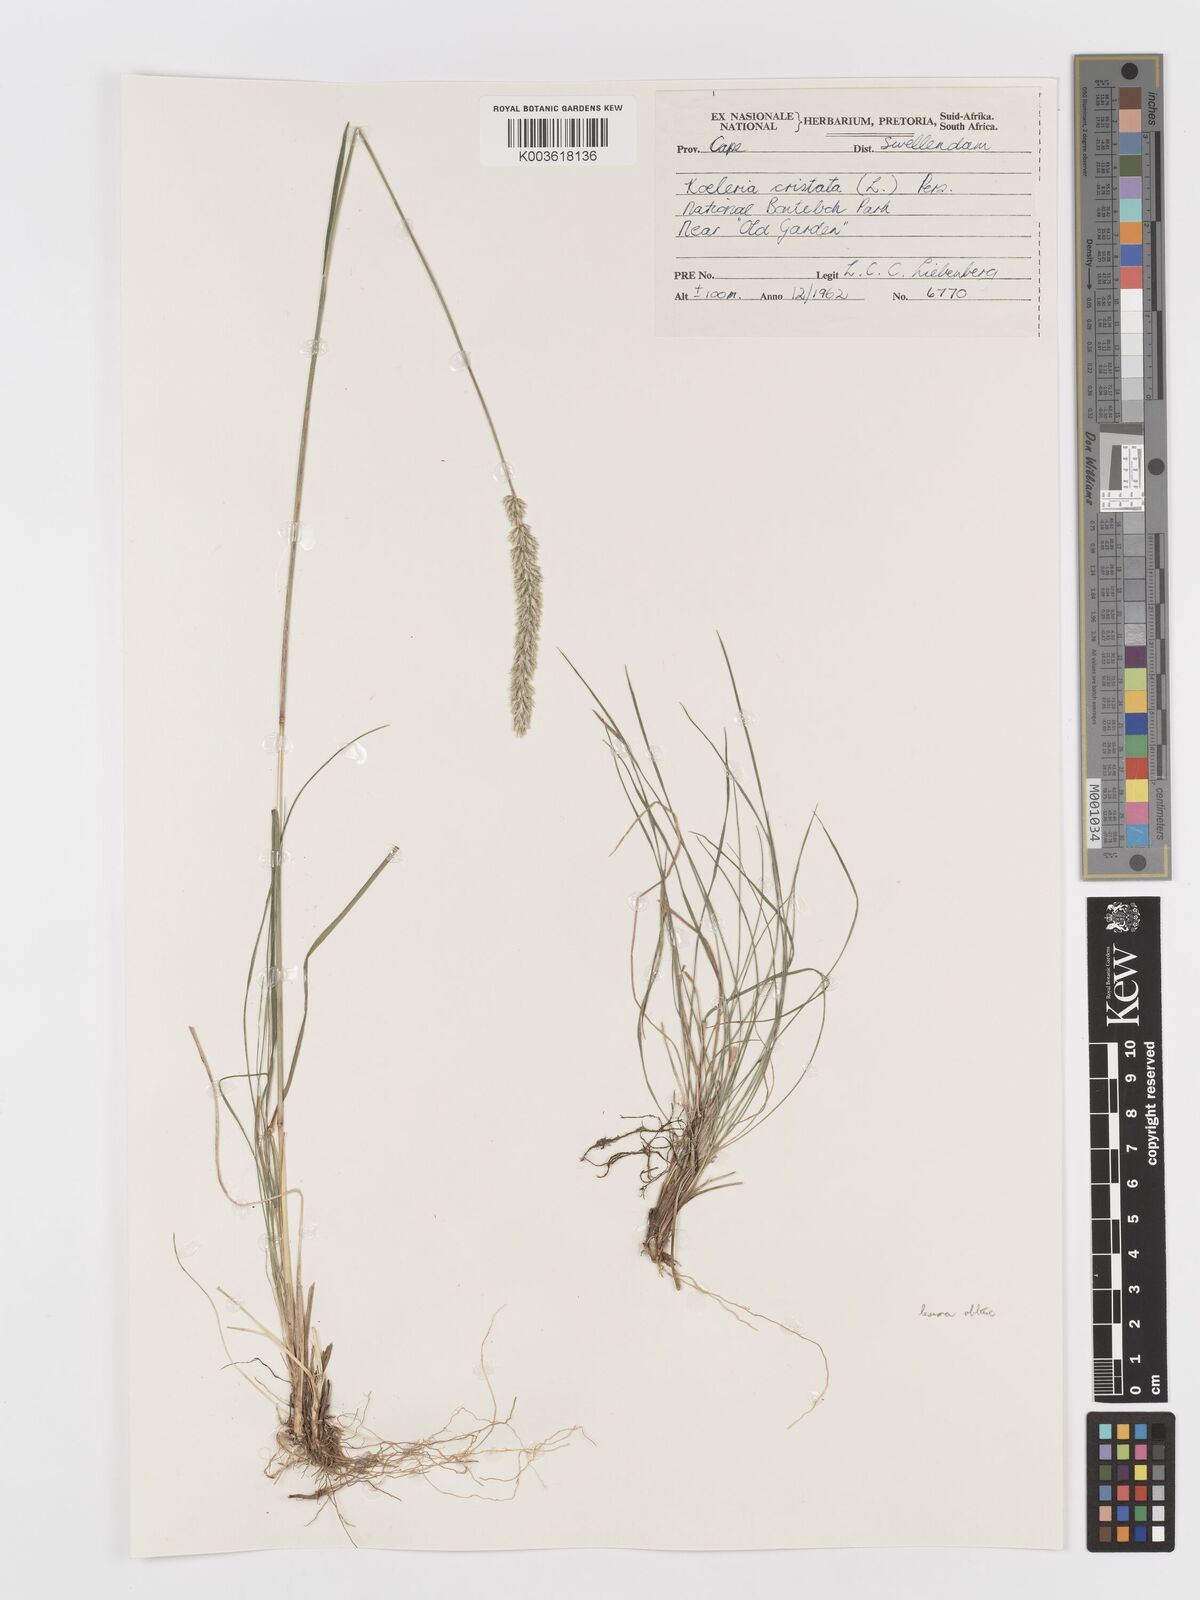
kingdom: Plantae
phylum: Tracheophyta
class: Liliopsida
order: Poales
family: Poaceae
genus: Koeleria
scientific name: Koeleria capensis
